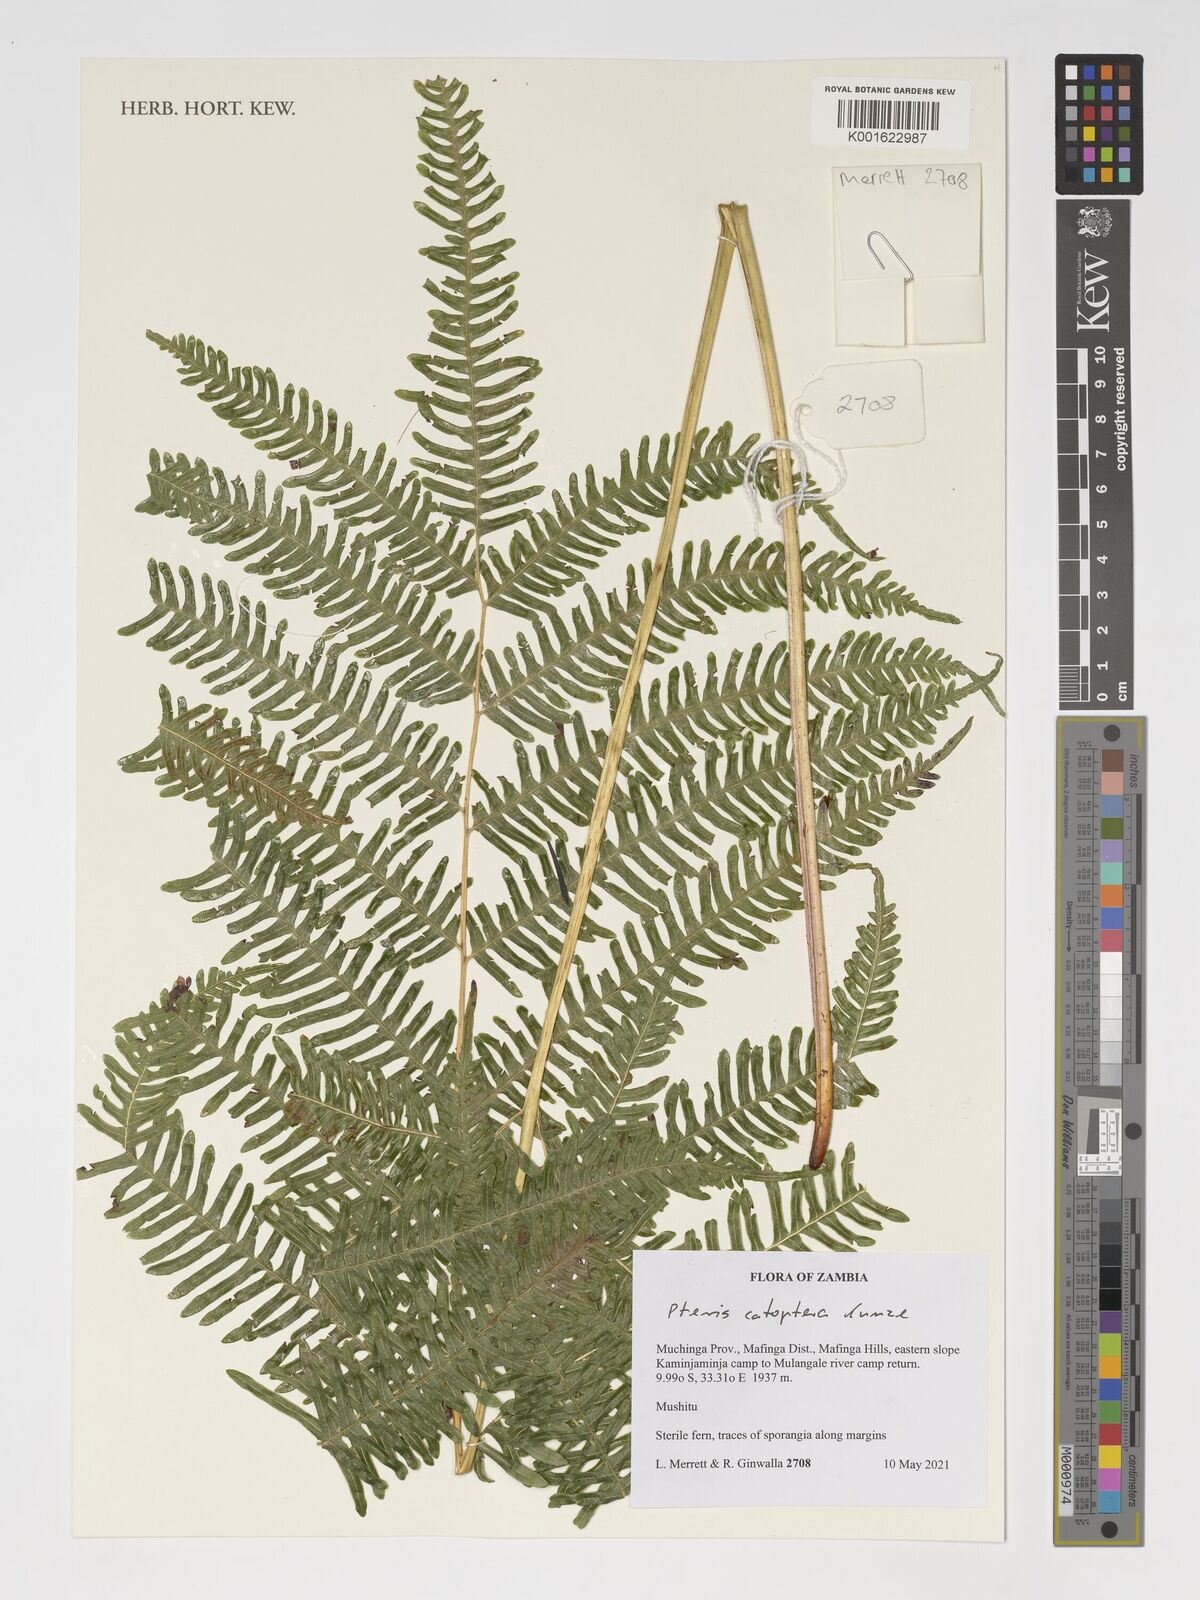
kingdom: Plantae
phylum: Tracheophyta
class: Polypodiopsida
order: Polypodiales
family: Pteridaceae
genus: Pteris
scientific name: Pteris catoptera
